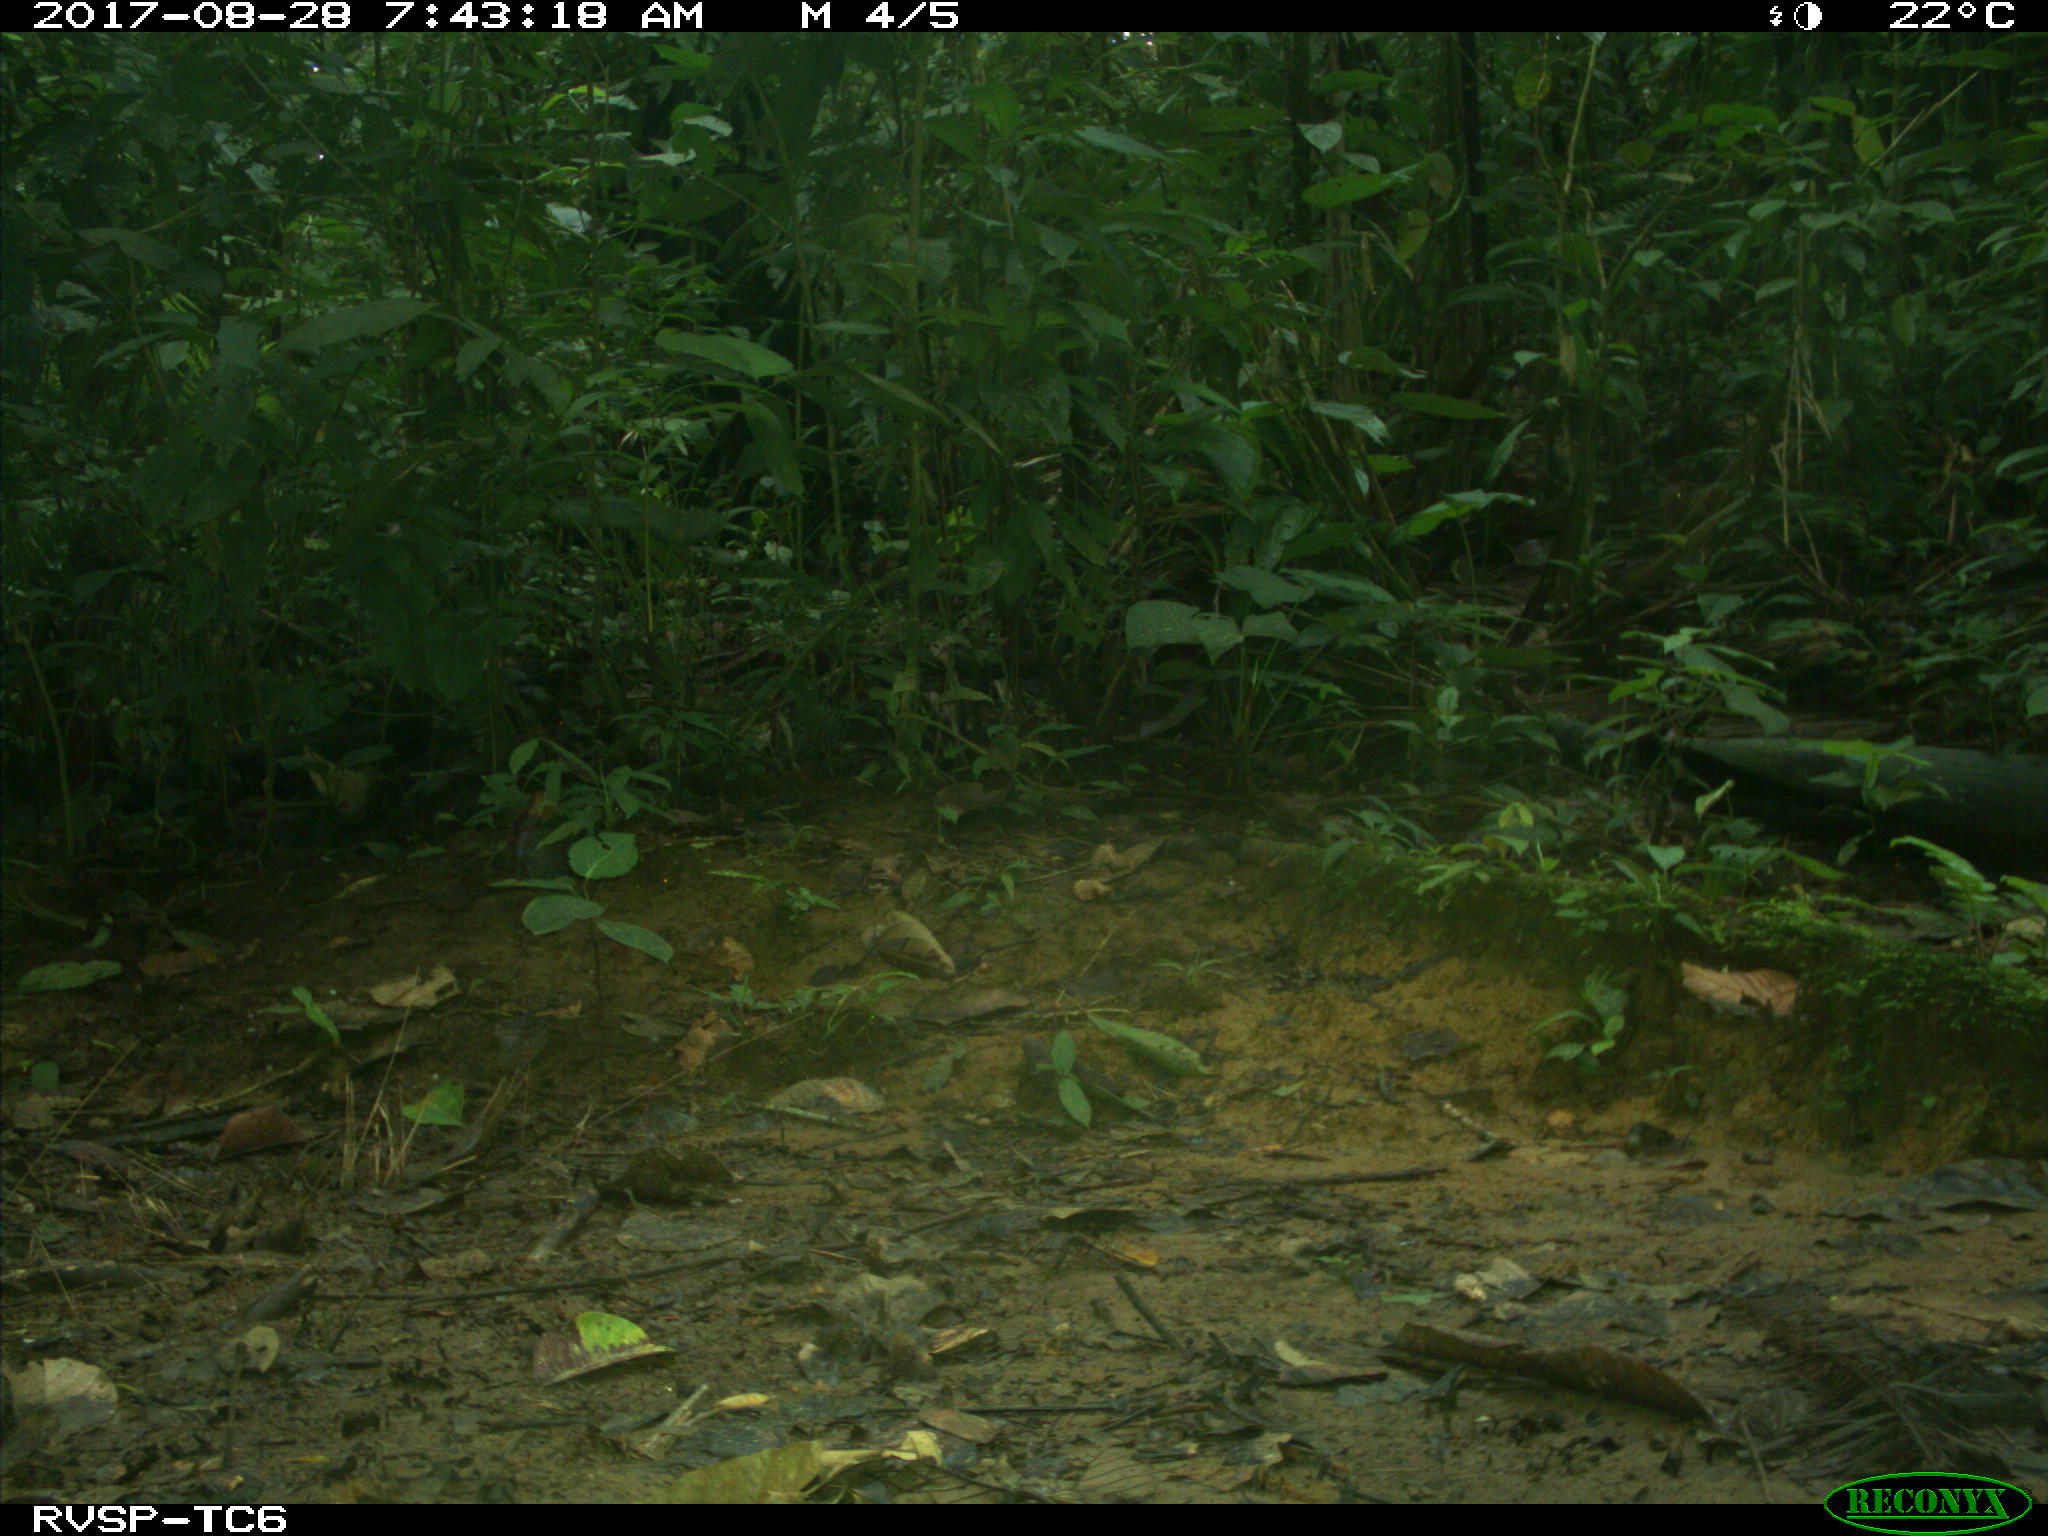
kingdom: Animalia
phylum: Chordata
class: Mammalia
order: Rodentia
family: Dasyproctidae
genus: Dasyprocta
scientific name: Dasyprocta punctata
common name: Central american agouti
